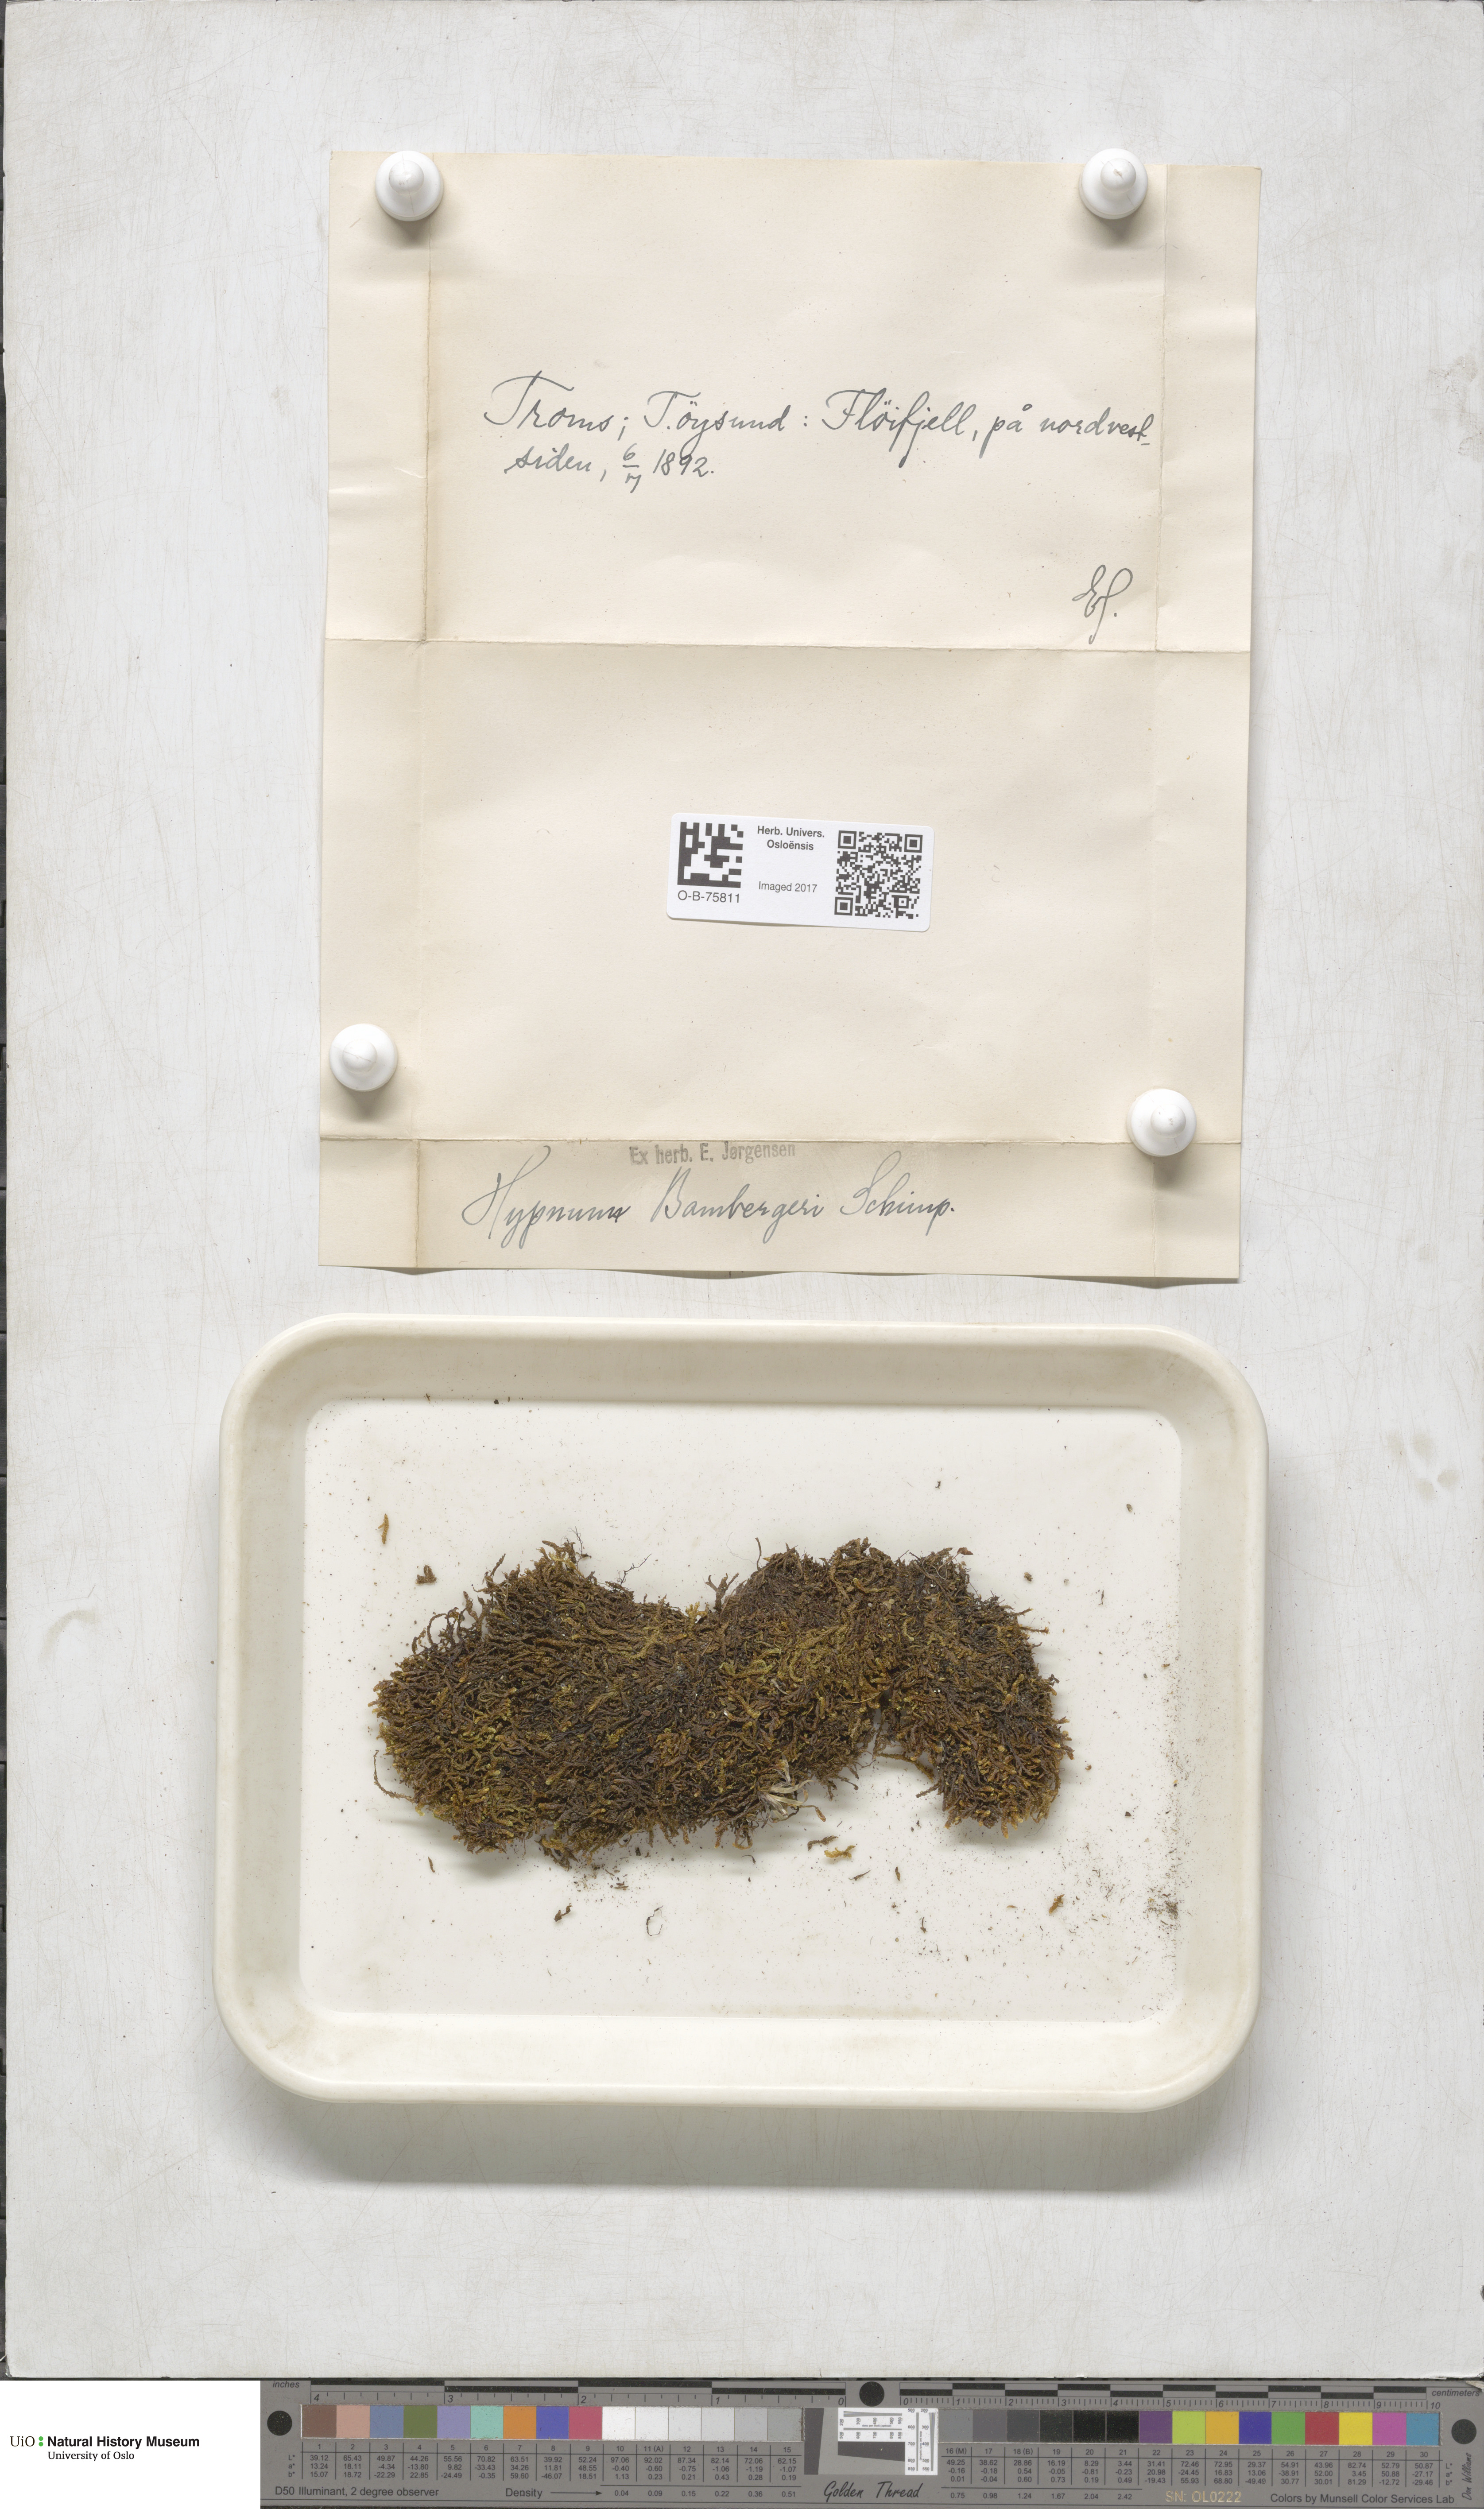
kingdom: Plantae
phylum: Bryophyta
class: Bryopsida
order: Hypnales
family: Amblystegiaceae
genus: Campylium
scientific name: Campylium bambergeri
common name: Golden plait-moss
